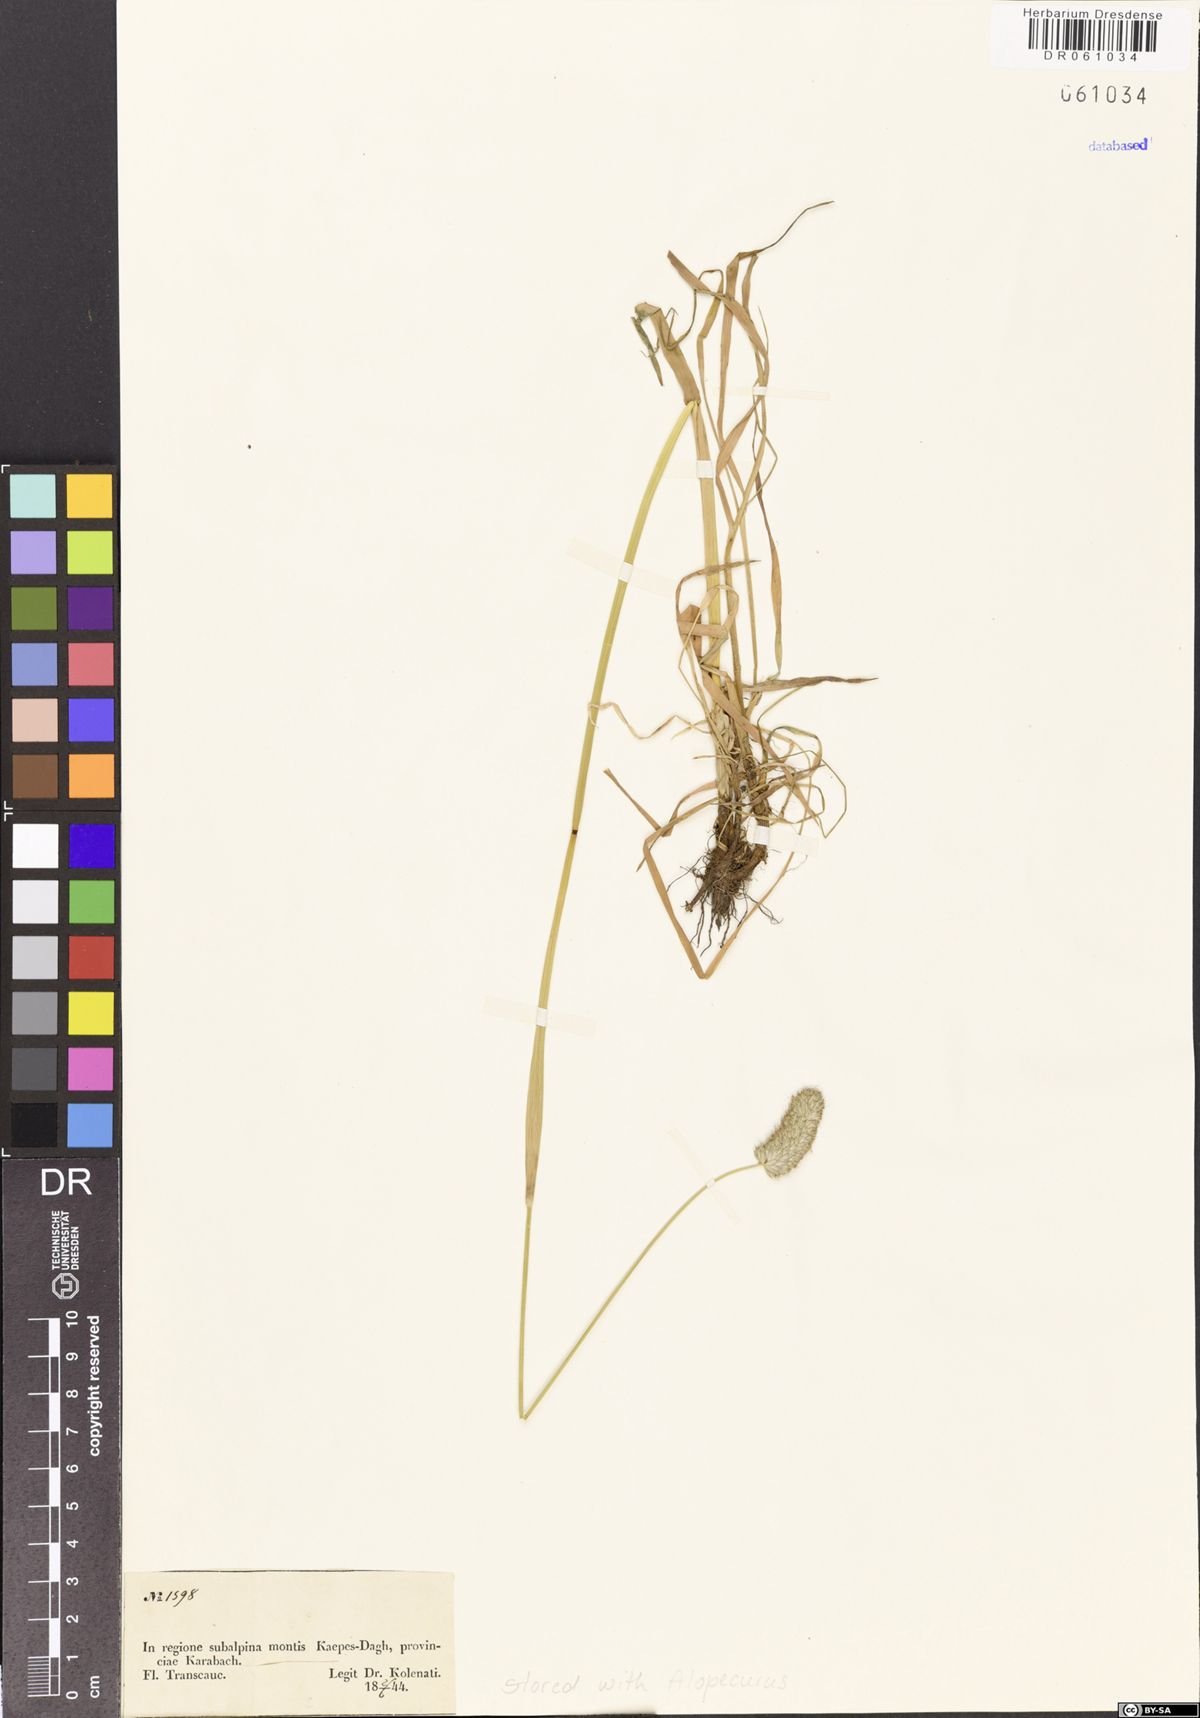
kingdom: Plantae
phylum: Tracheophyta
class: Liliopsida
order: Poales
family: Poaceae
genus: Alopecurus
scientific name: Alopecurus
